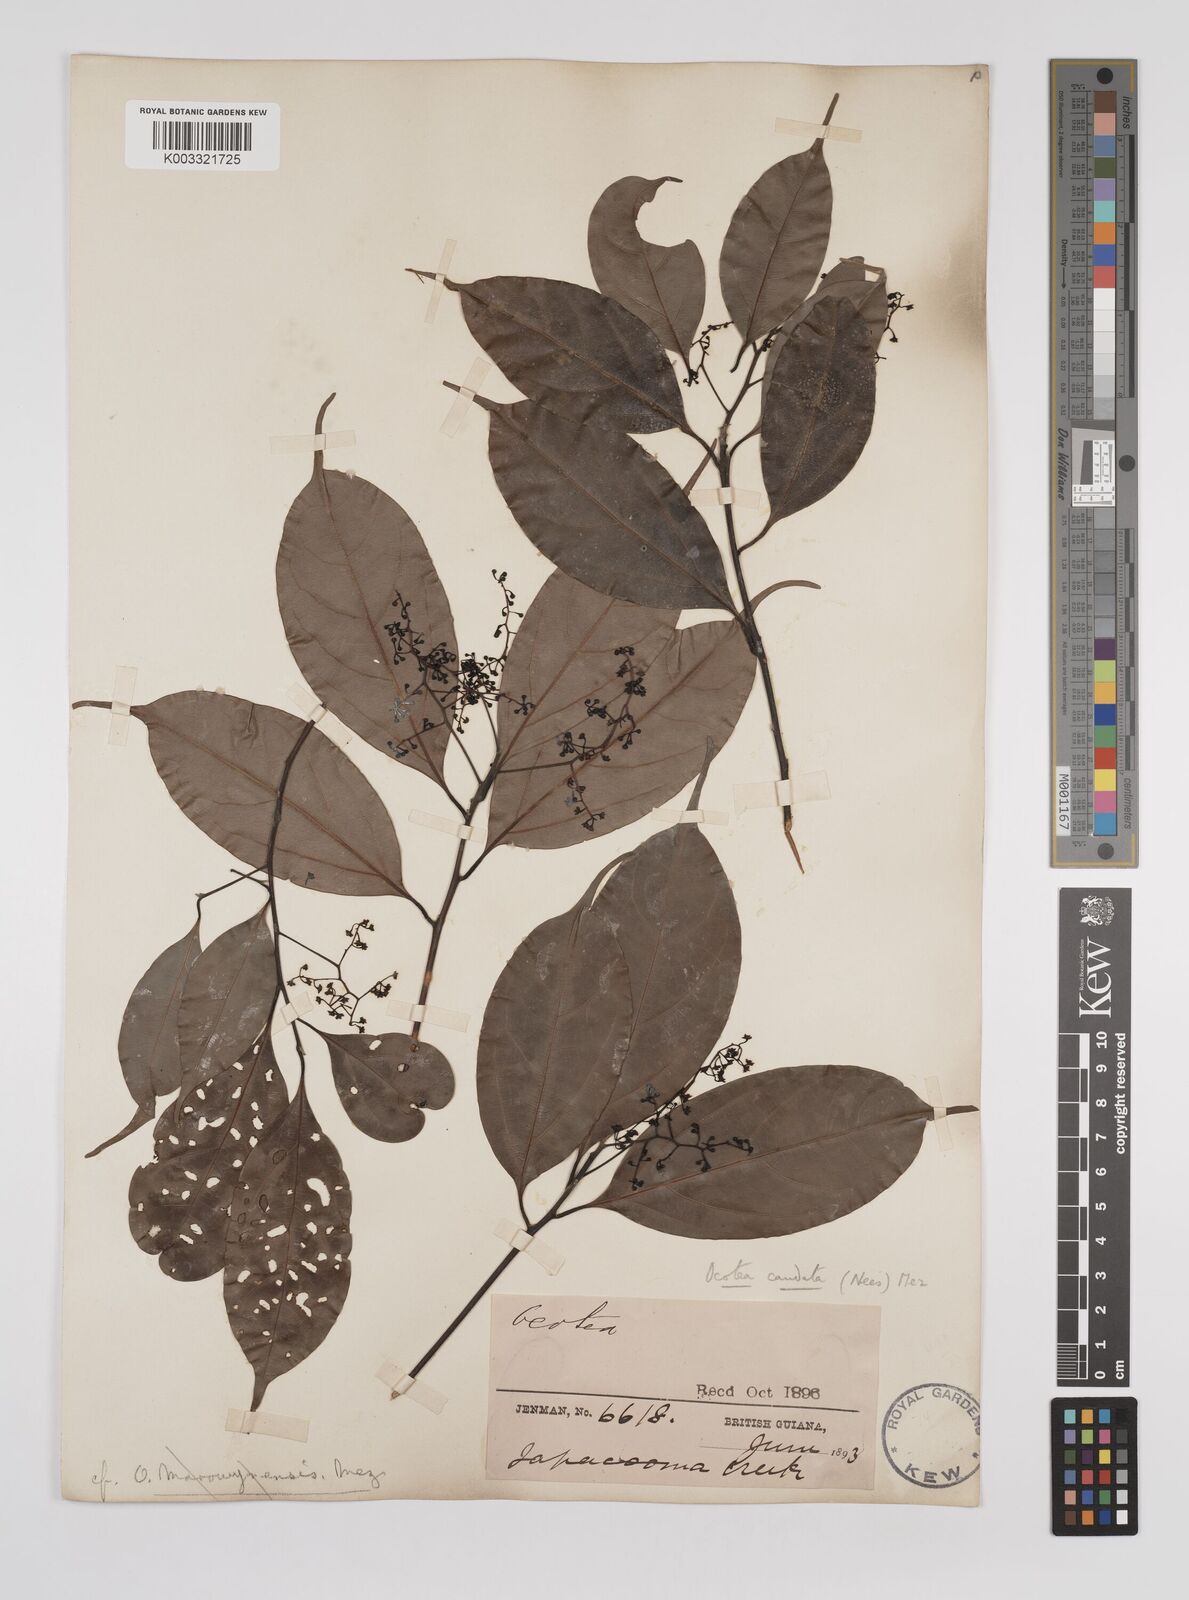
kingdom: Plantae
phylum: Tracheophyta
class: Magnoliopsida
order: Laurales
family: Lauraceae
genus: Ocotea
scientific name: Ocotea leptobotra
